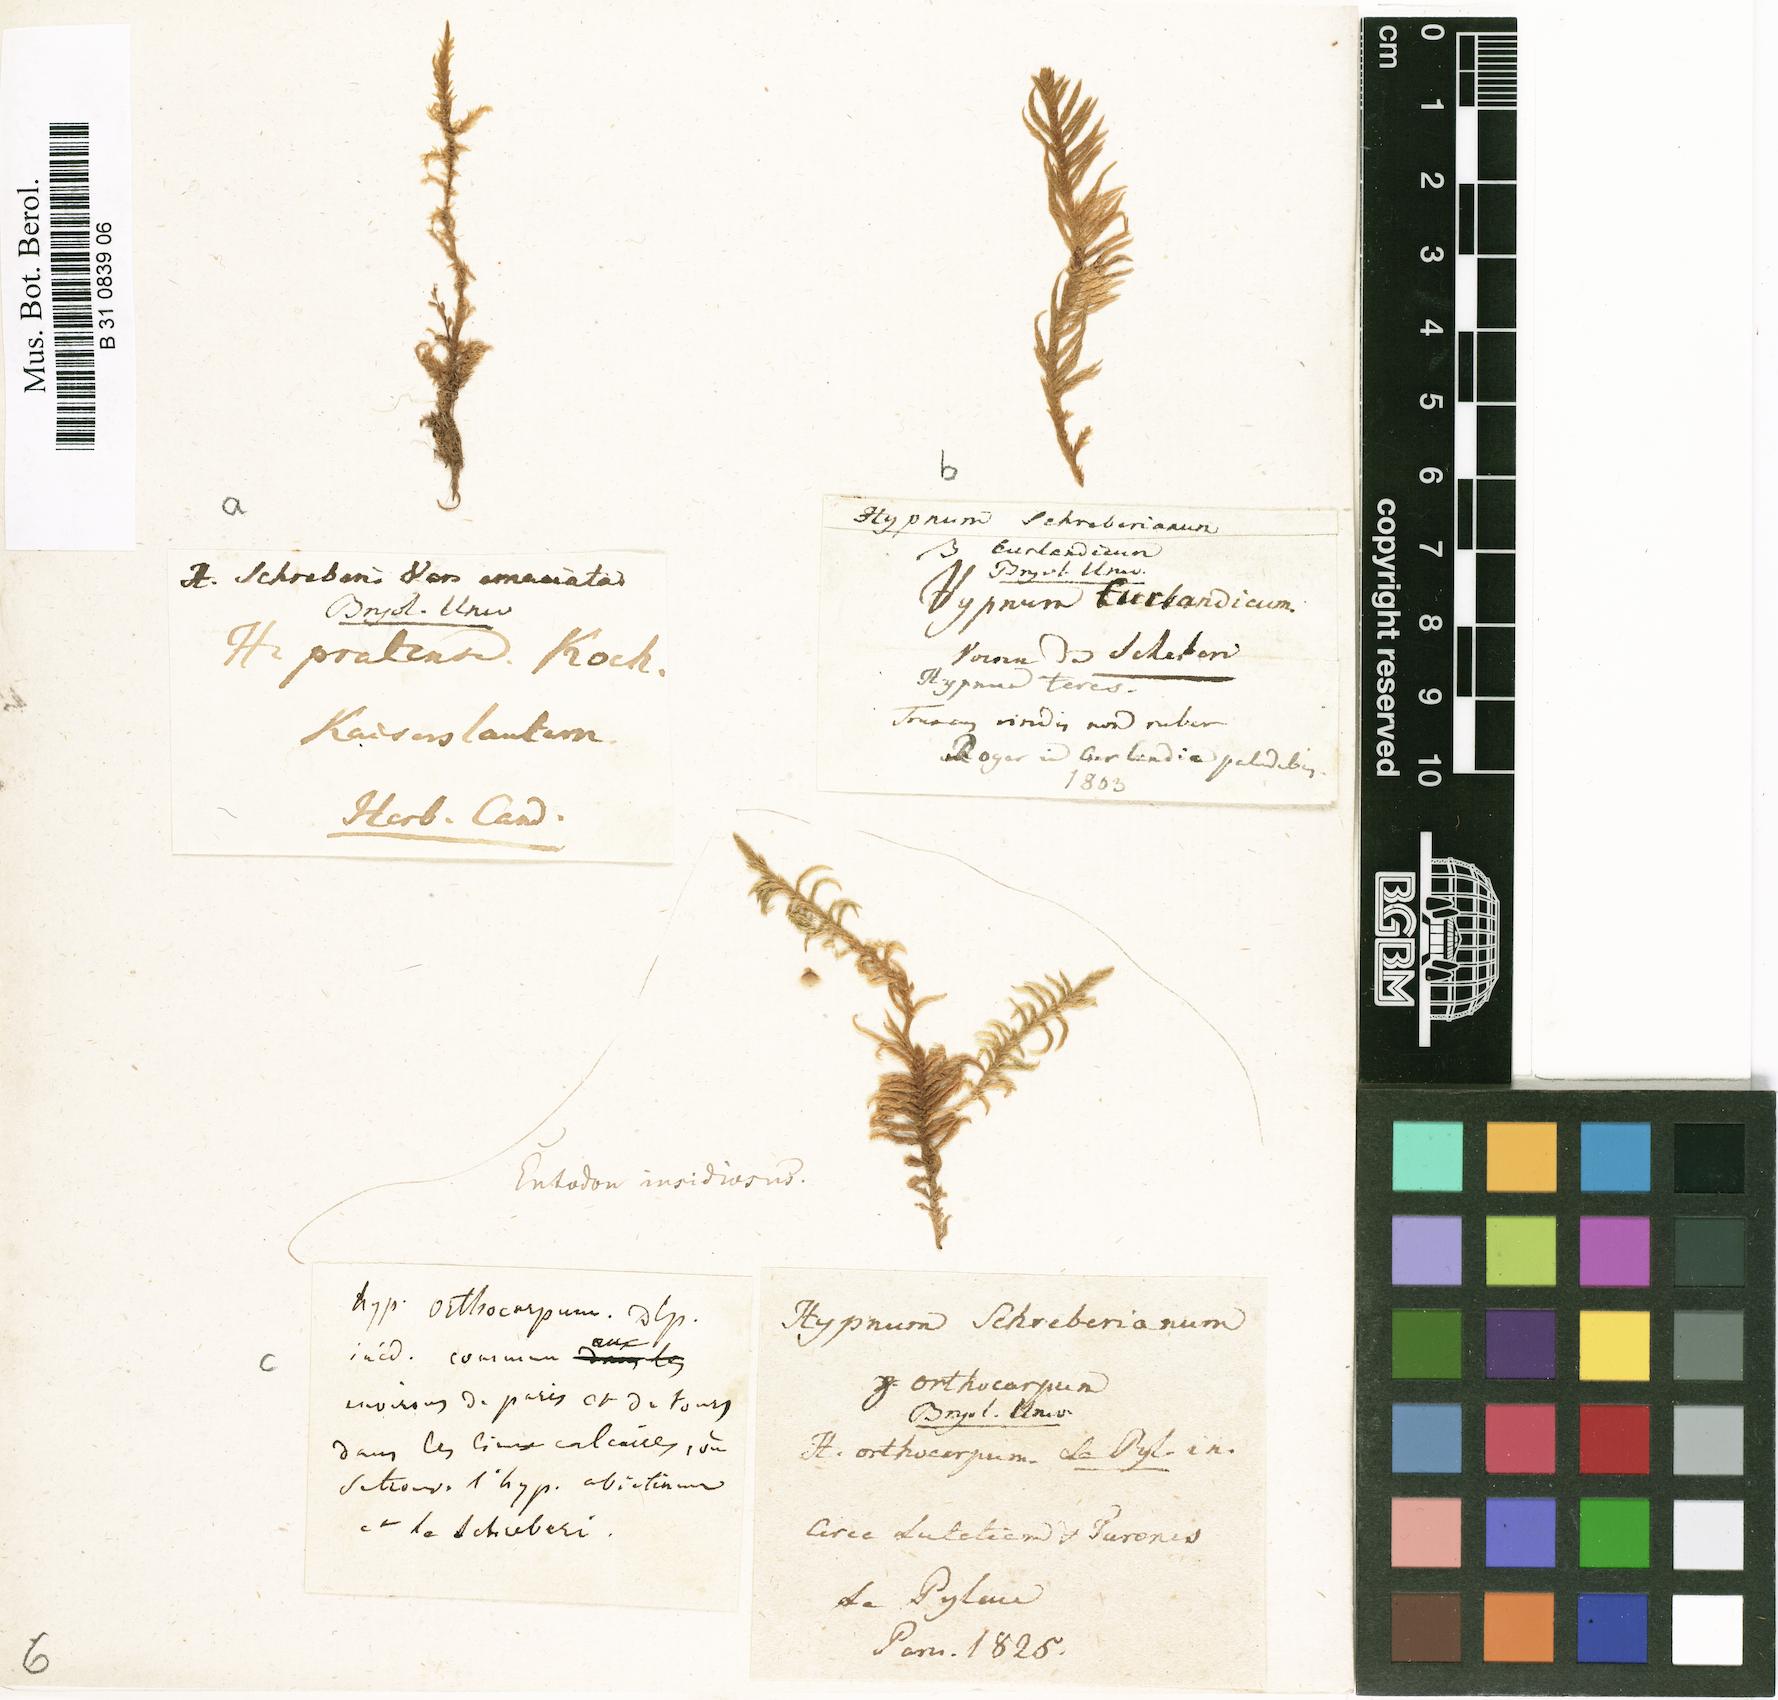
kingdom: Plantae
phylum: Bryophyta
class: Bryopsida
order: Hypnales
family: Hylocomiaceae
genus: Pleurozium
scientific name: Pleurozium schreberi
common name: Red-stemmed feather moss
